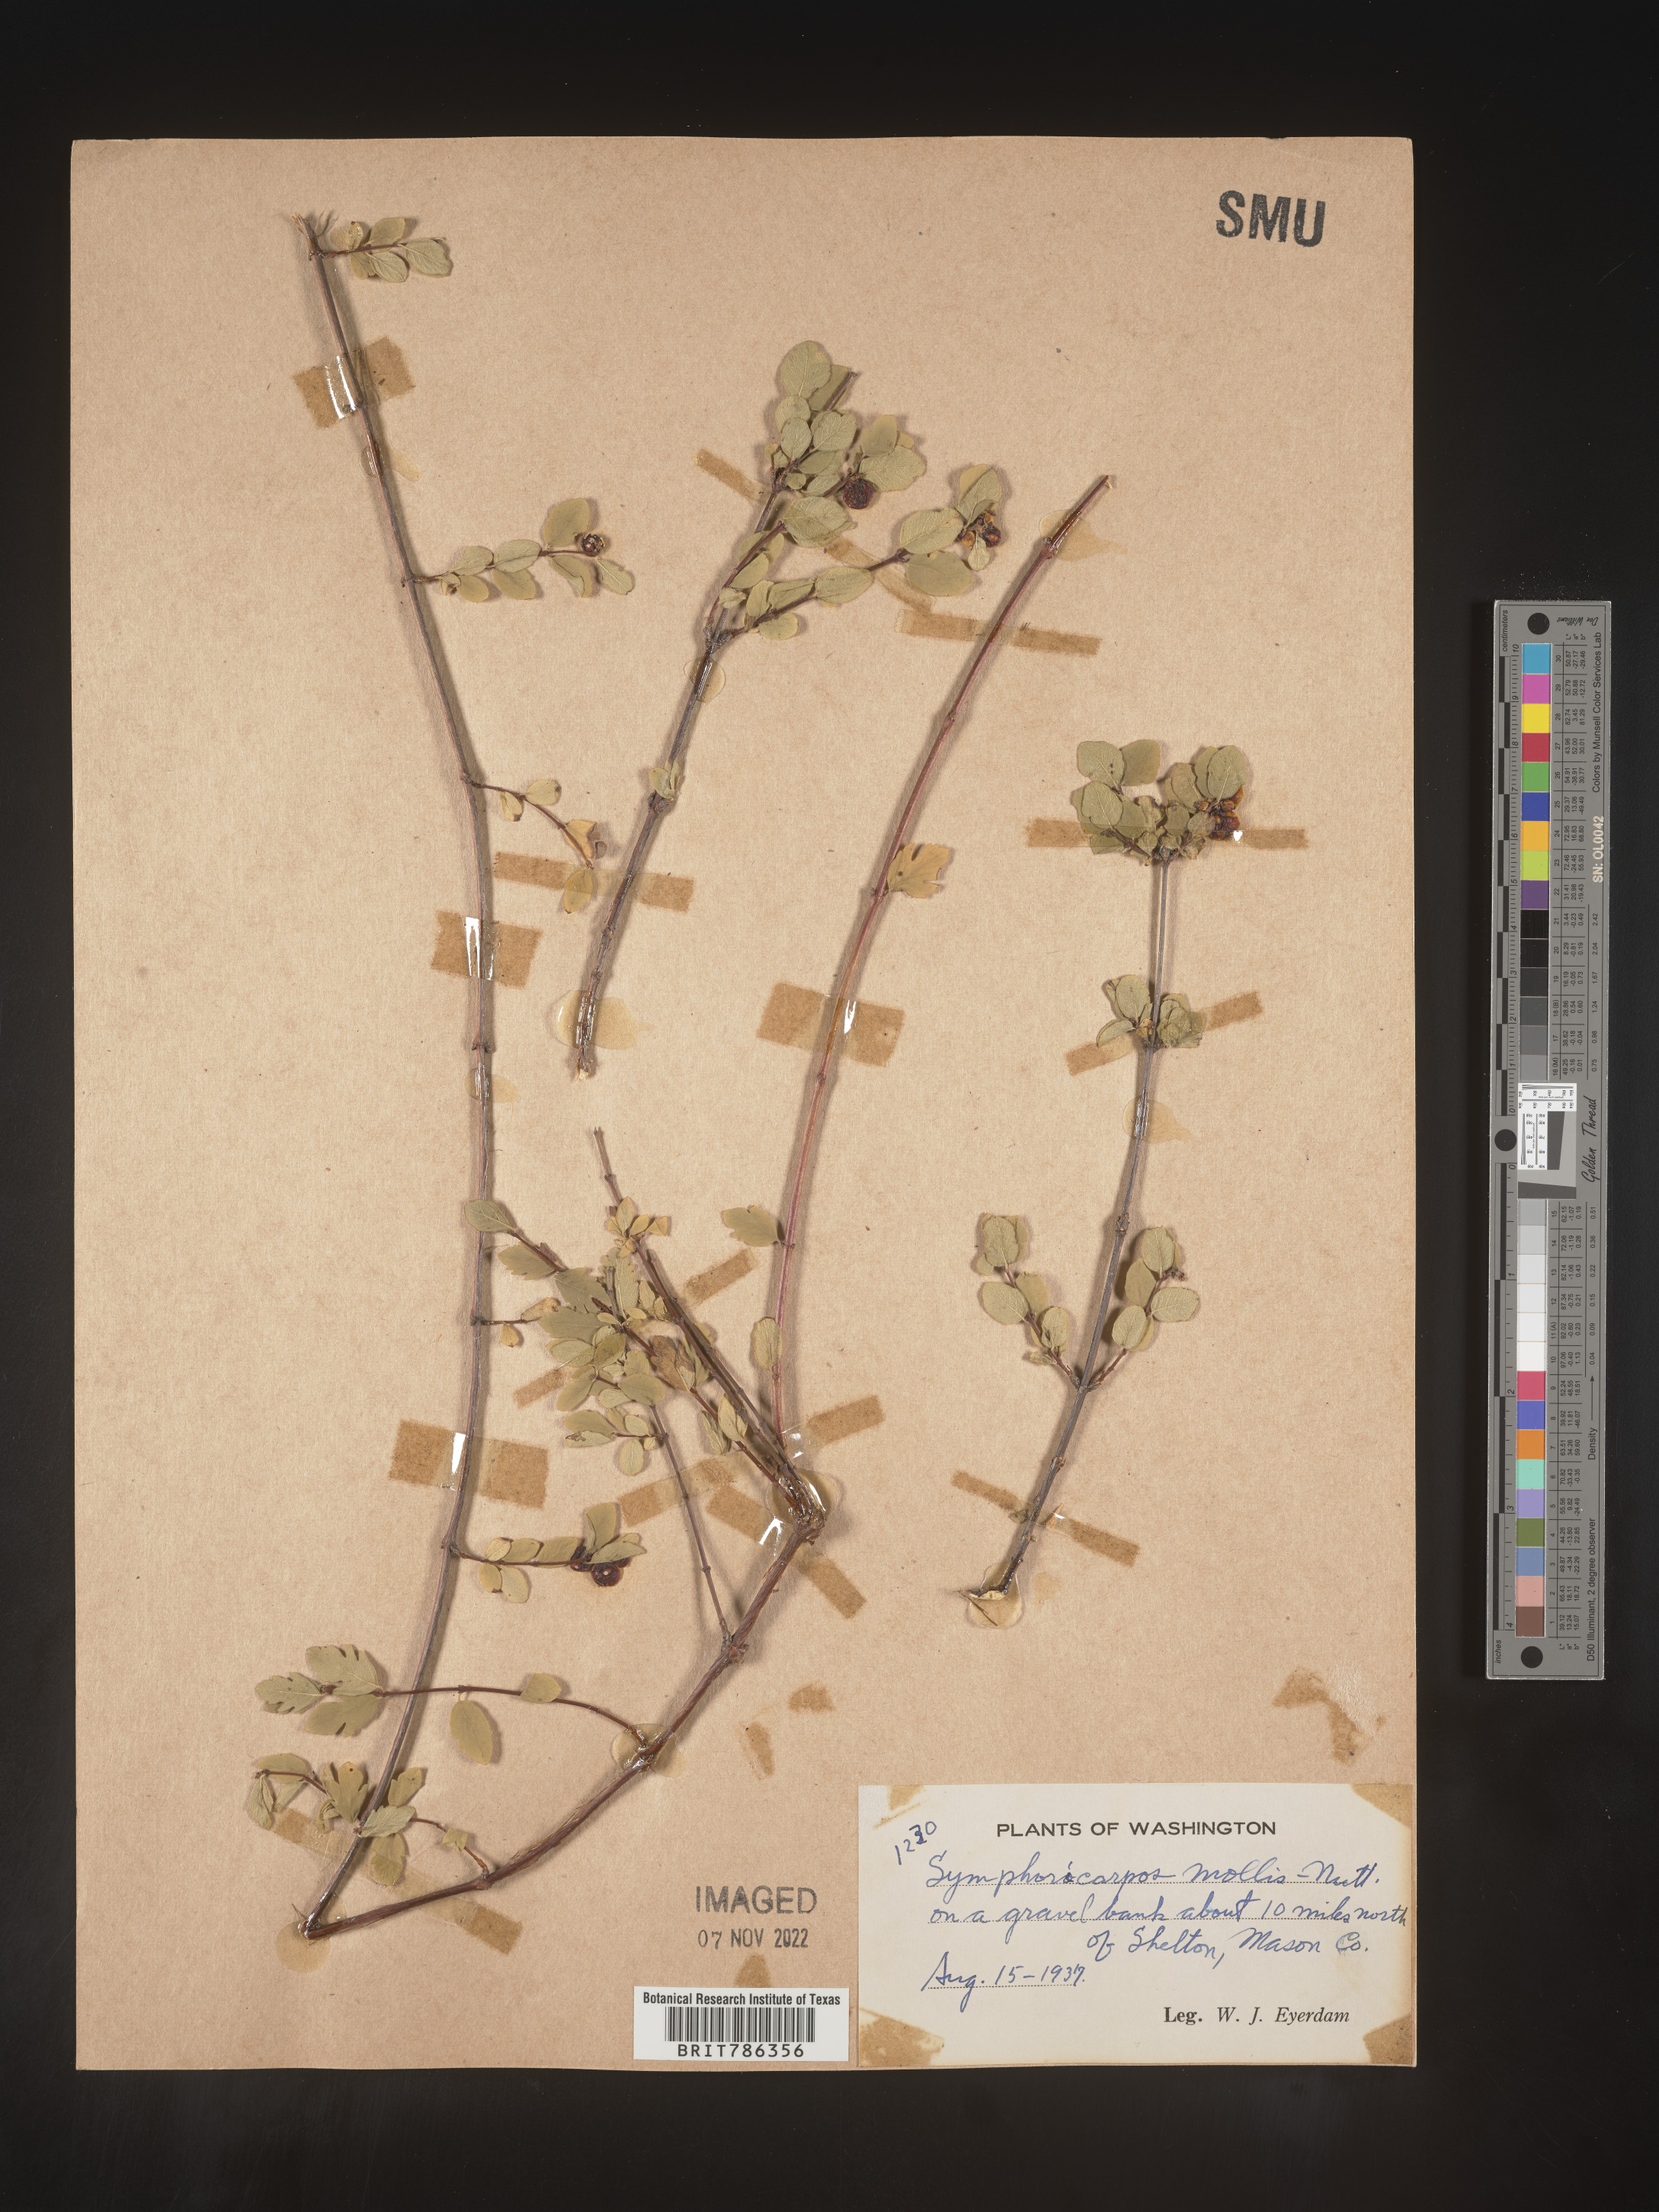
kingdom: Plantae
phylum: Tracheophyta
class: Magnoliopsida
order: Dipsacales
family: Caprifoliaceae
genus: Symphoricarpos
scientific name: Symphoricarpos
